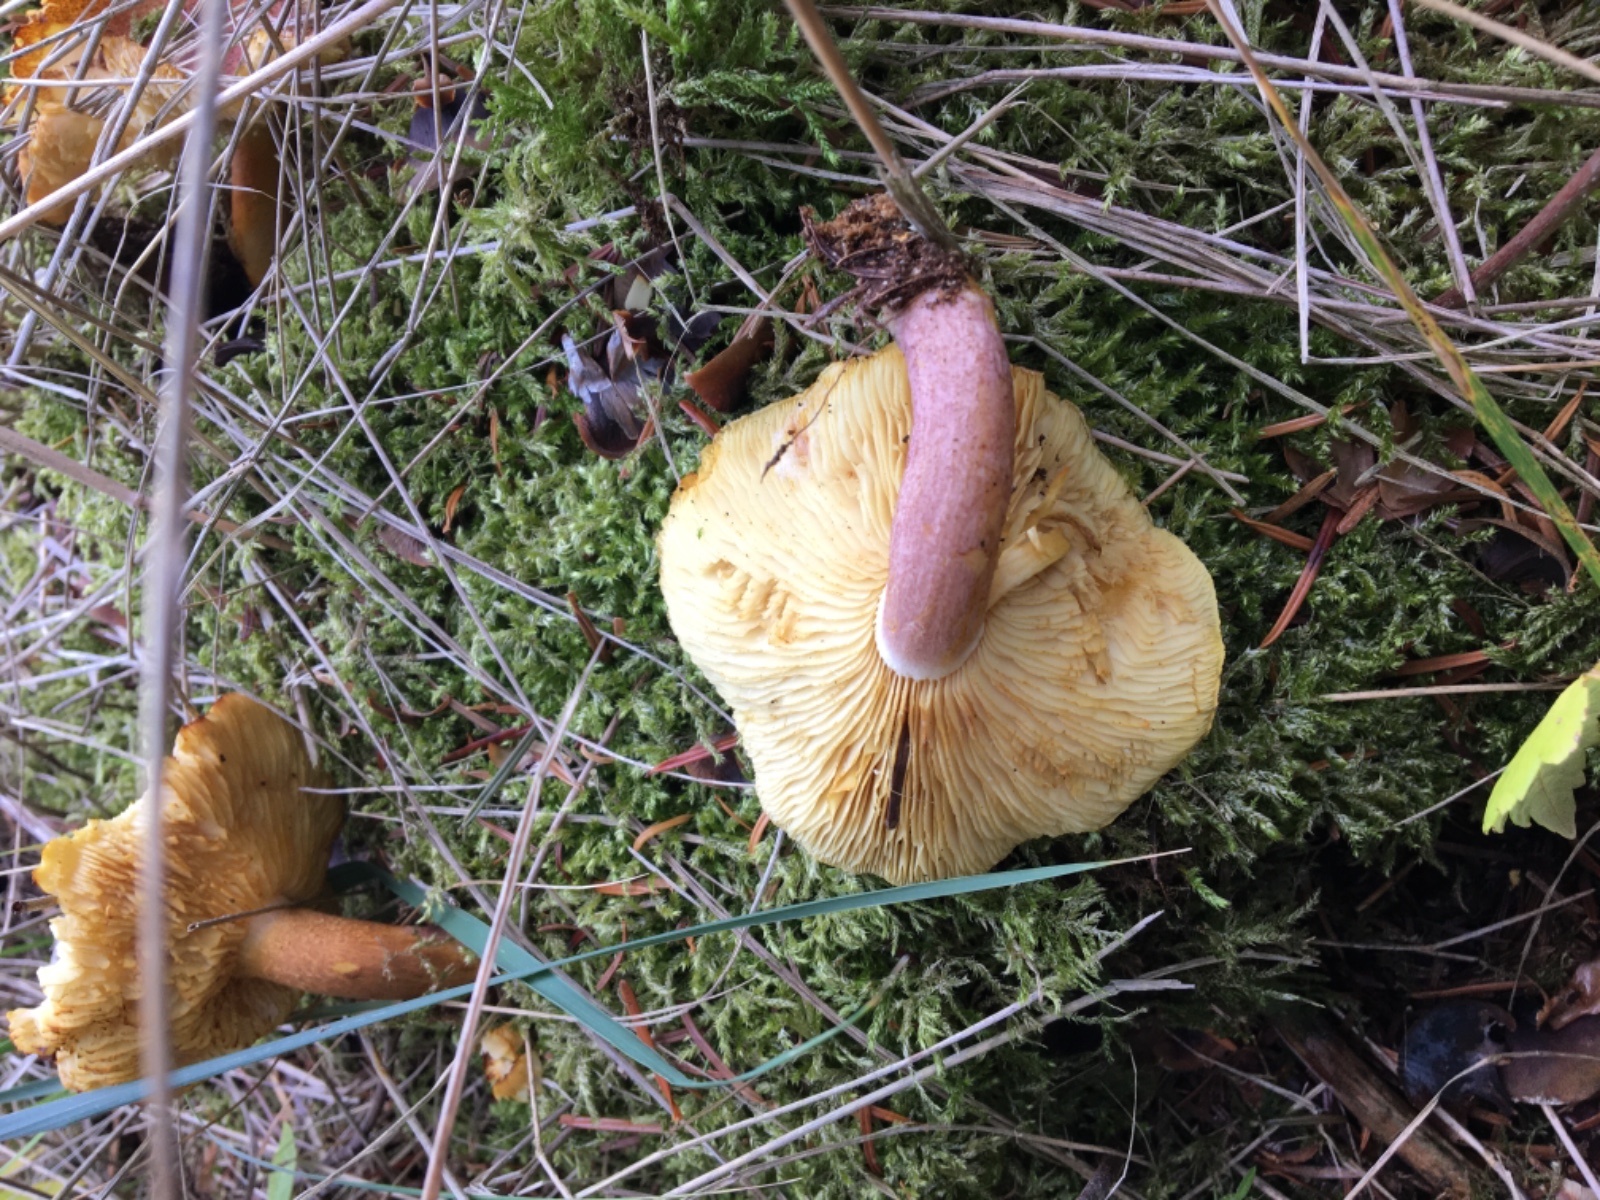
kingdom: Fungi
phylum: Basidiomycota
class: Agaricomycetes
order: Agaricales
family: Tricholomataceae
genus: Tricholomopsis
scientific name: Tricholomopsis rutilans
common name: purpur-væbnerhat
